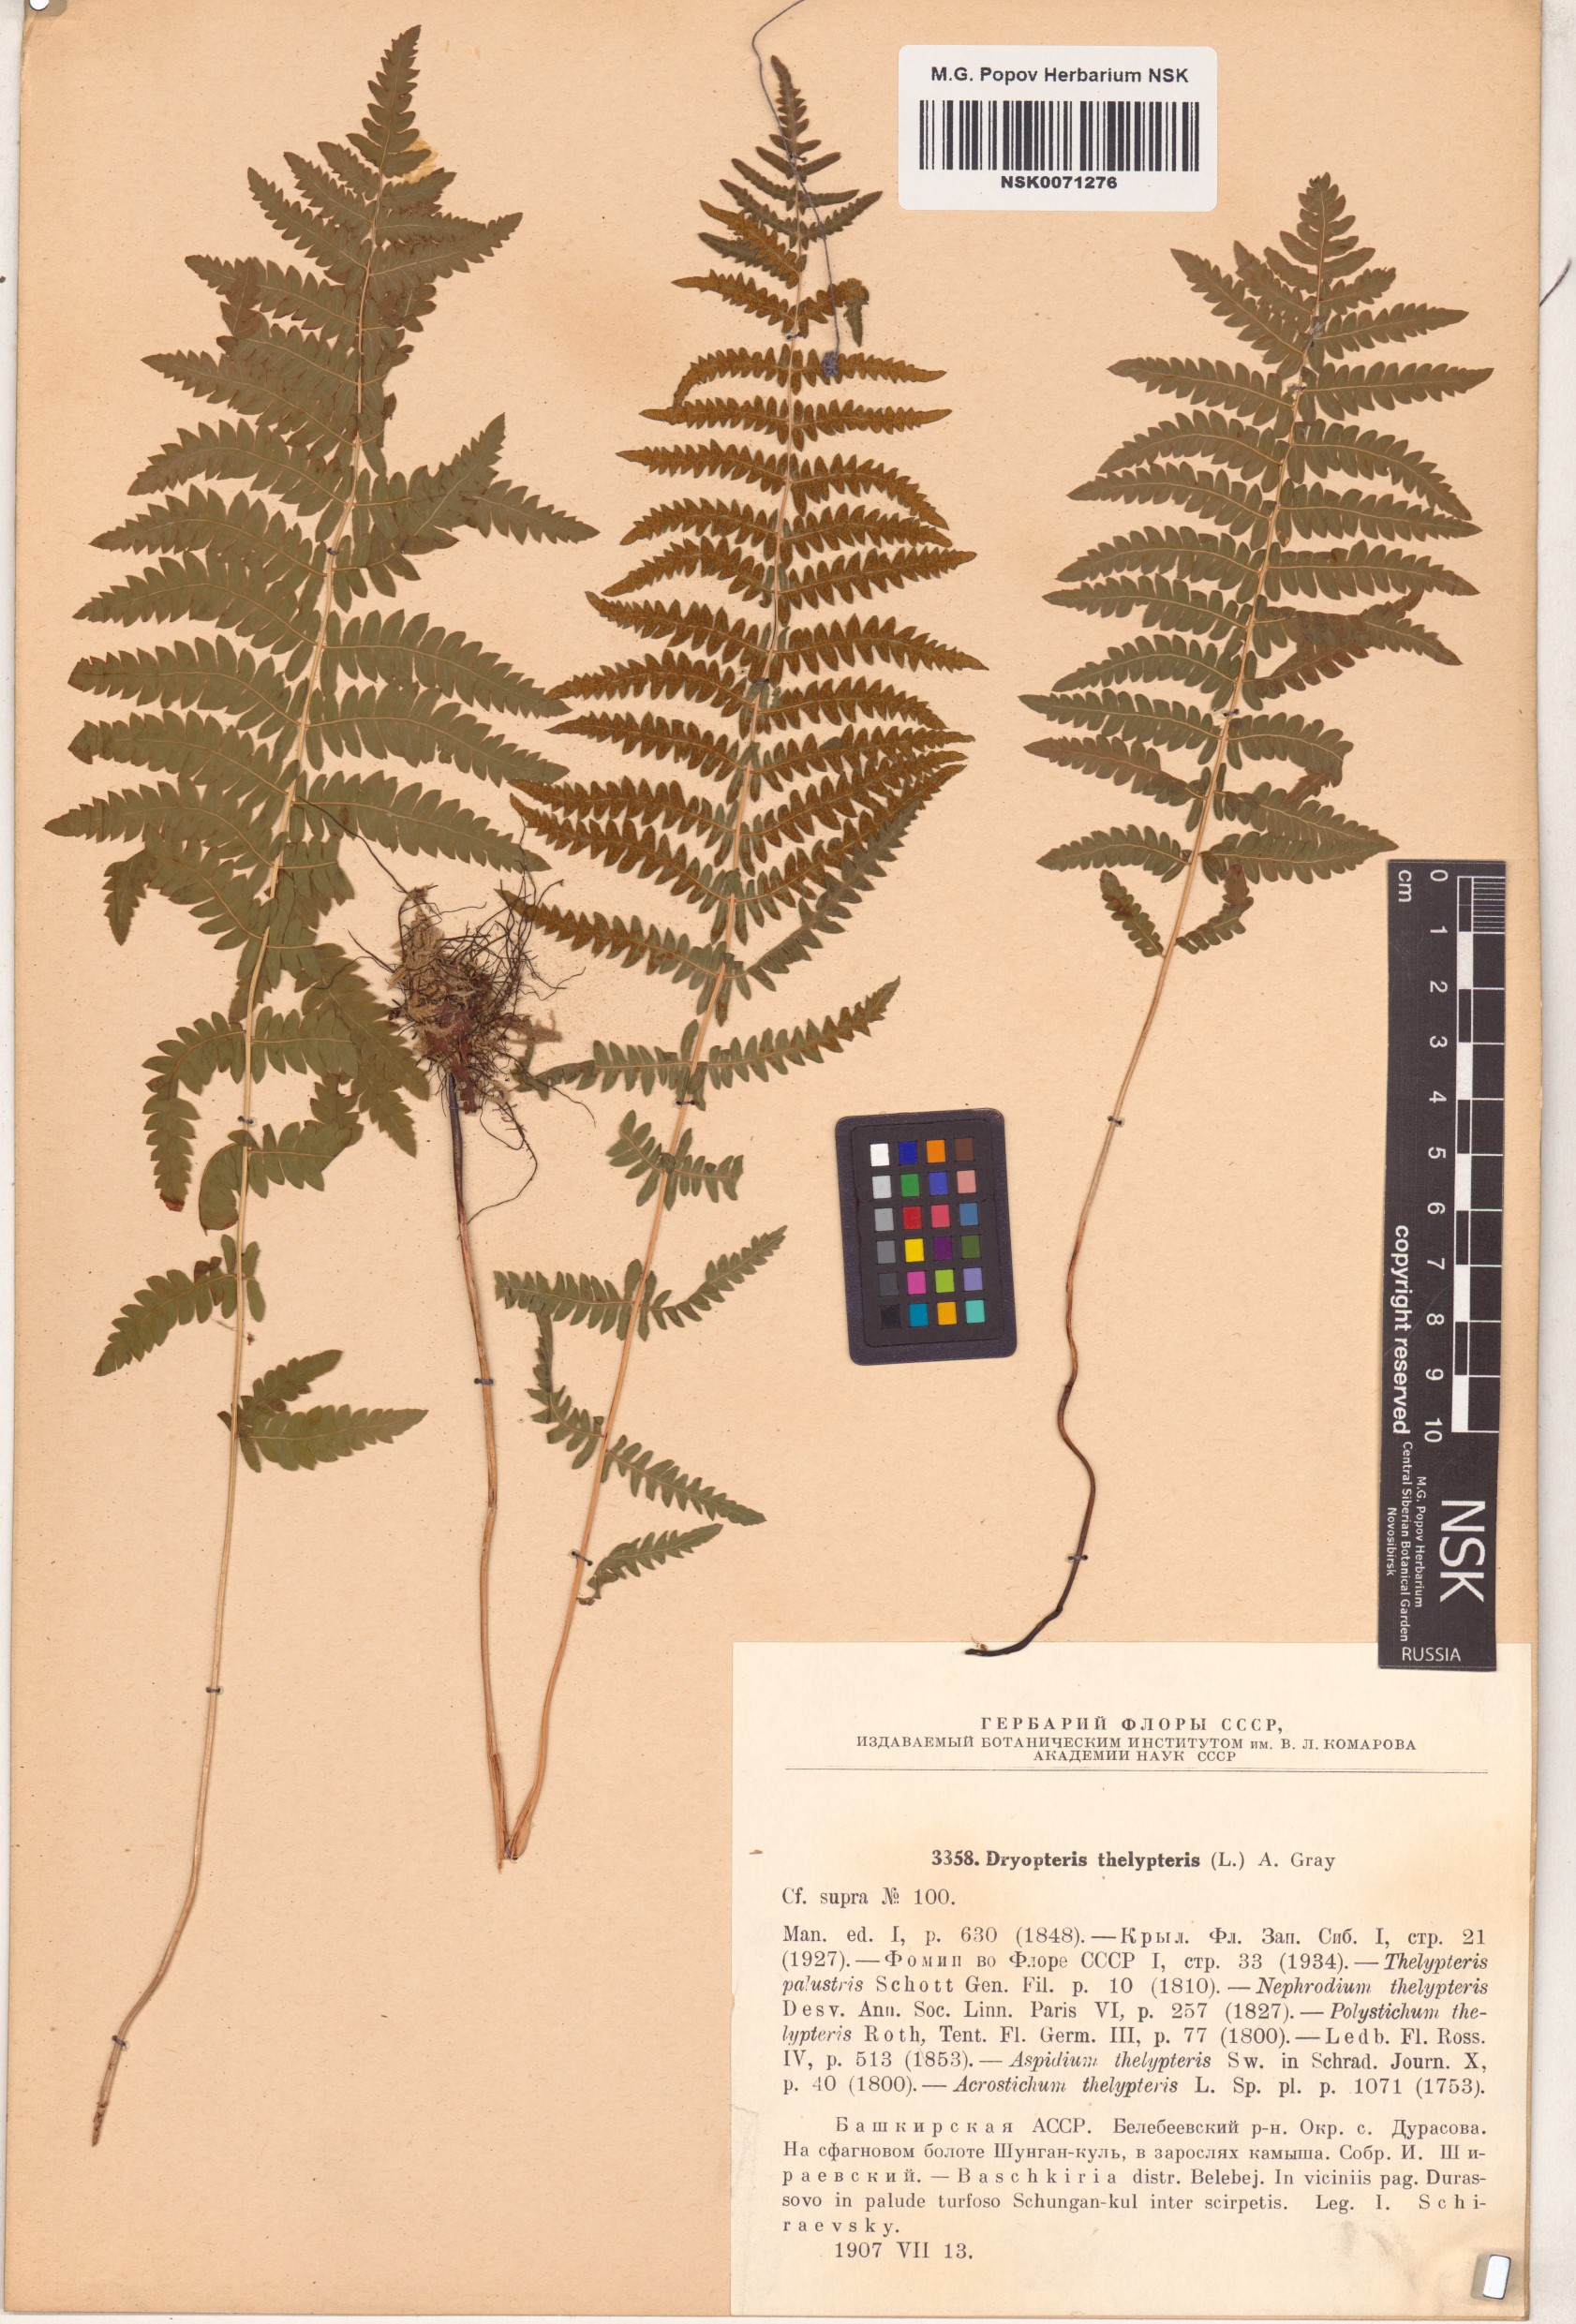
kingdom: Plantae
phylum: Tracheophyta
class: Polypodiopsida
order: Polypodiales
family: Thelypteridaceae
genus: Thelypteris
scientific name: Thelypteris palustris
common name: Marsh fern
